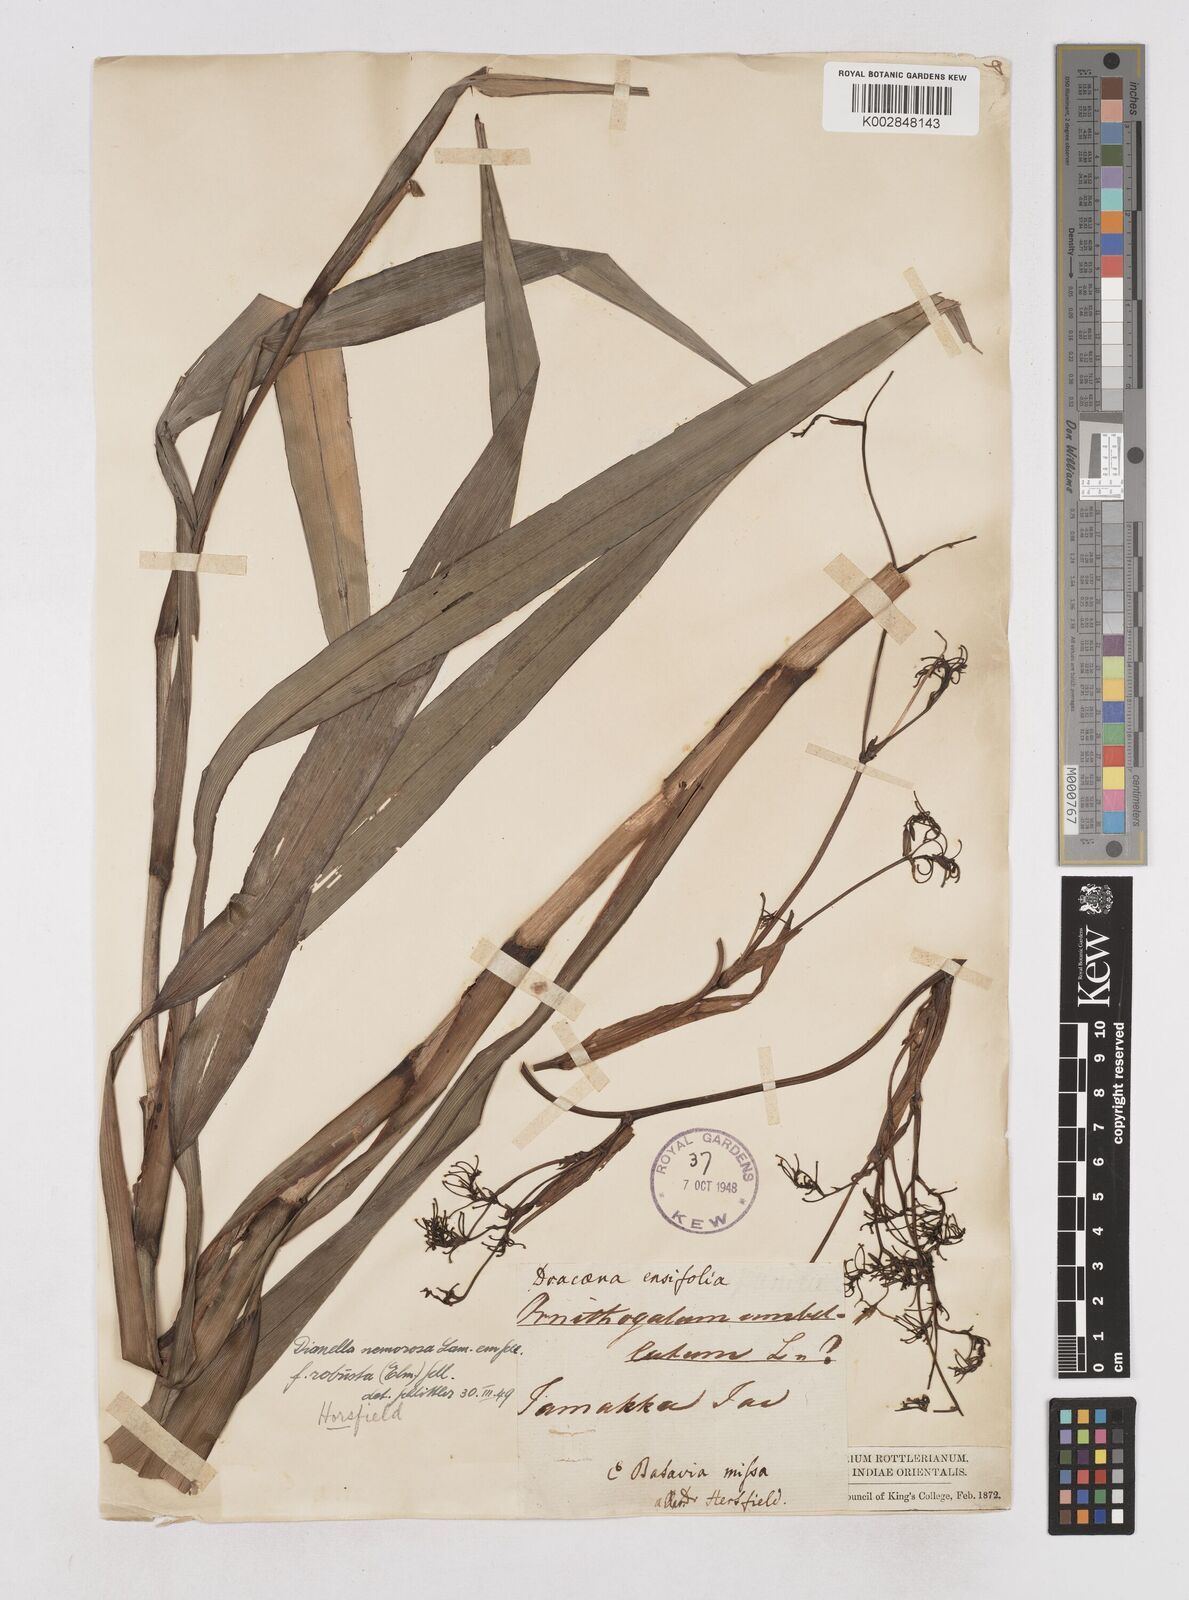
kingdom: Plantae
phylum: Tracheophyta
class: Liliopsida
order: Asparagales
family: Asphodelaceae
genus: Dianella
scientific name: Dianella ensifolia
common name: New zealand lilyplant
